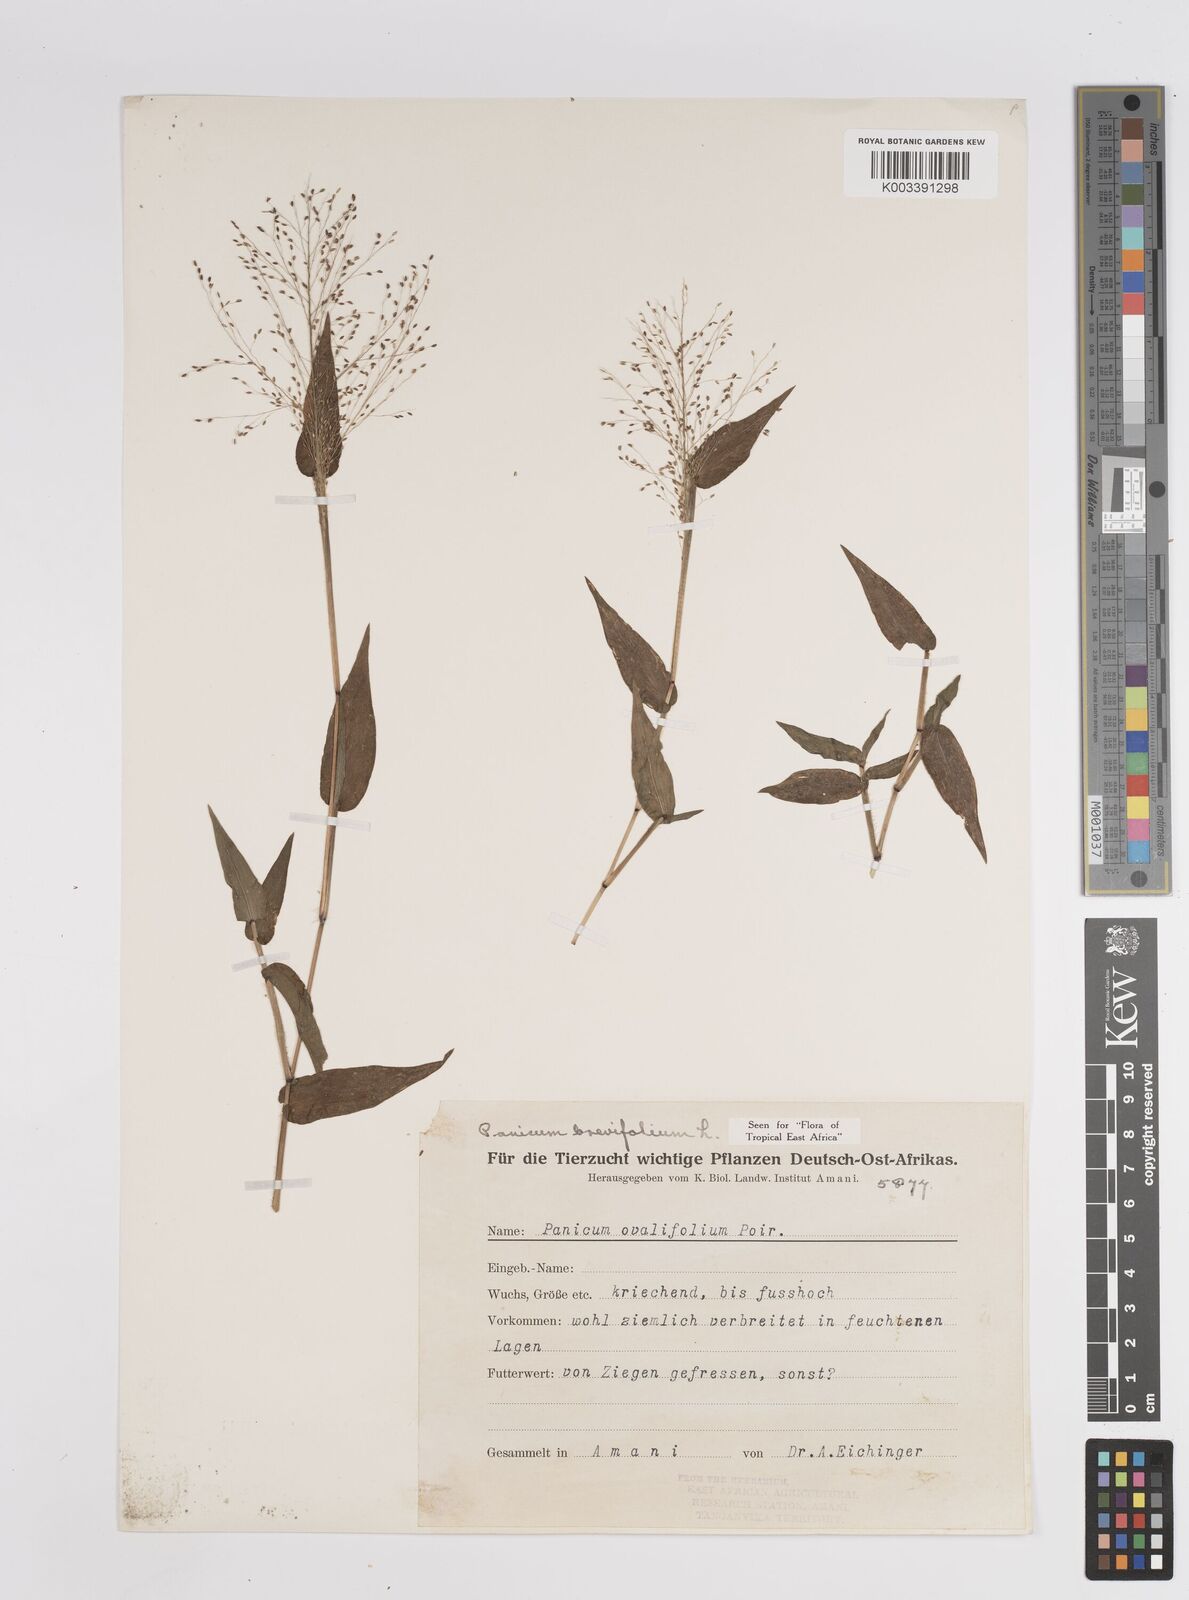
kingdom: Plantae
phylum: Tracheophyta
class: Liliopsida
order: Poales
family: Poaceae
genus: Panicum
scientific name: Panicum brevifolium
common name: Shortleaf panic grass
